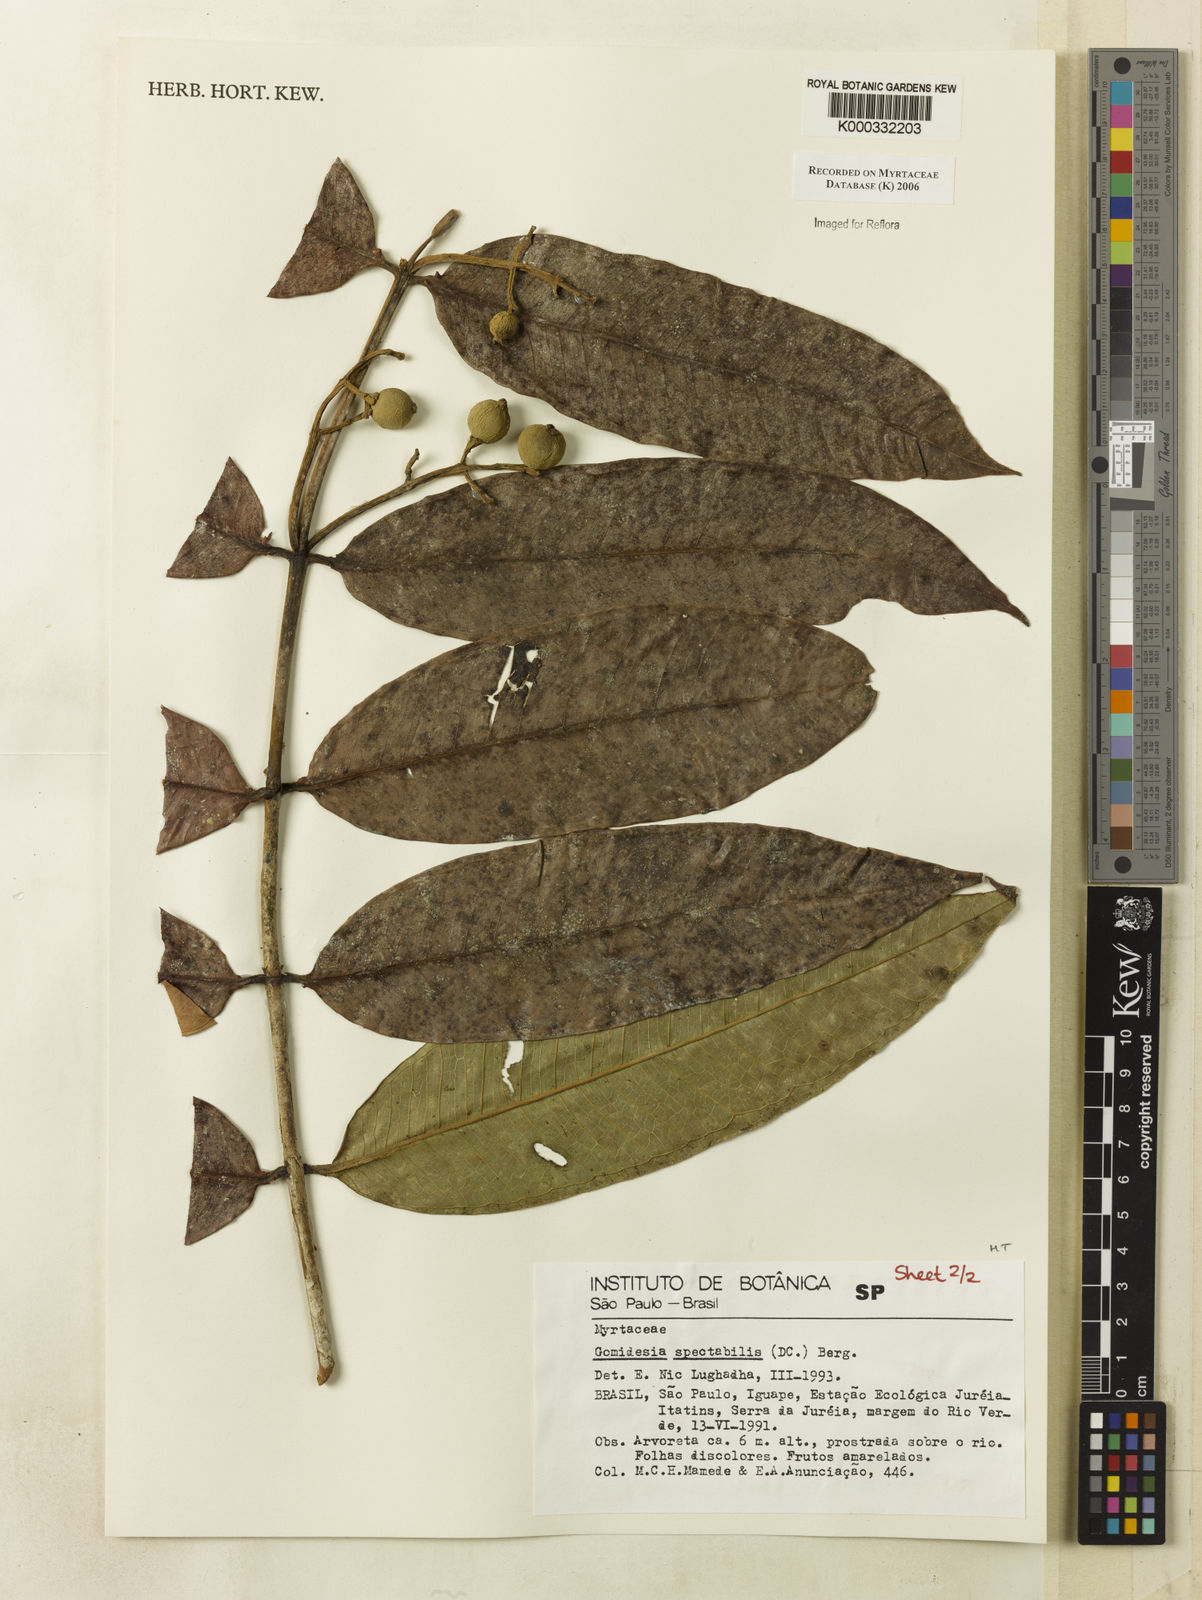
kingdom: Plantae
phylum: Tracheophyta
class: Magnoliopsida
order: Myrtales
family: Myrtaceae
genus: Myrcia
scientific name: Myrcia spectabilis
